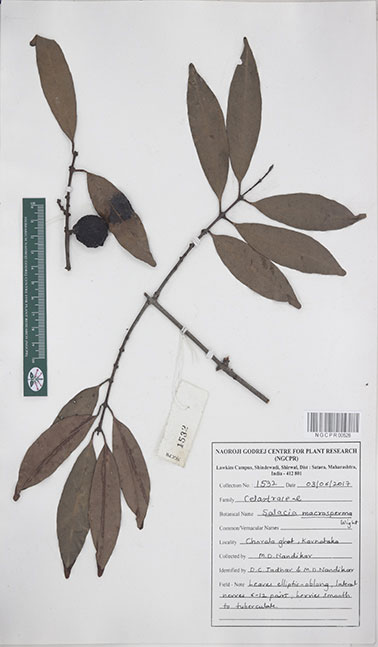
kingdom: Plantae
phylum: Tracheophyta
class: Magnoliopsida
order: Celastrales
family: Celastraceae
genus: Salacia
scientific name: Salacia macrosperma
